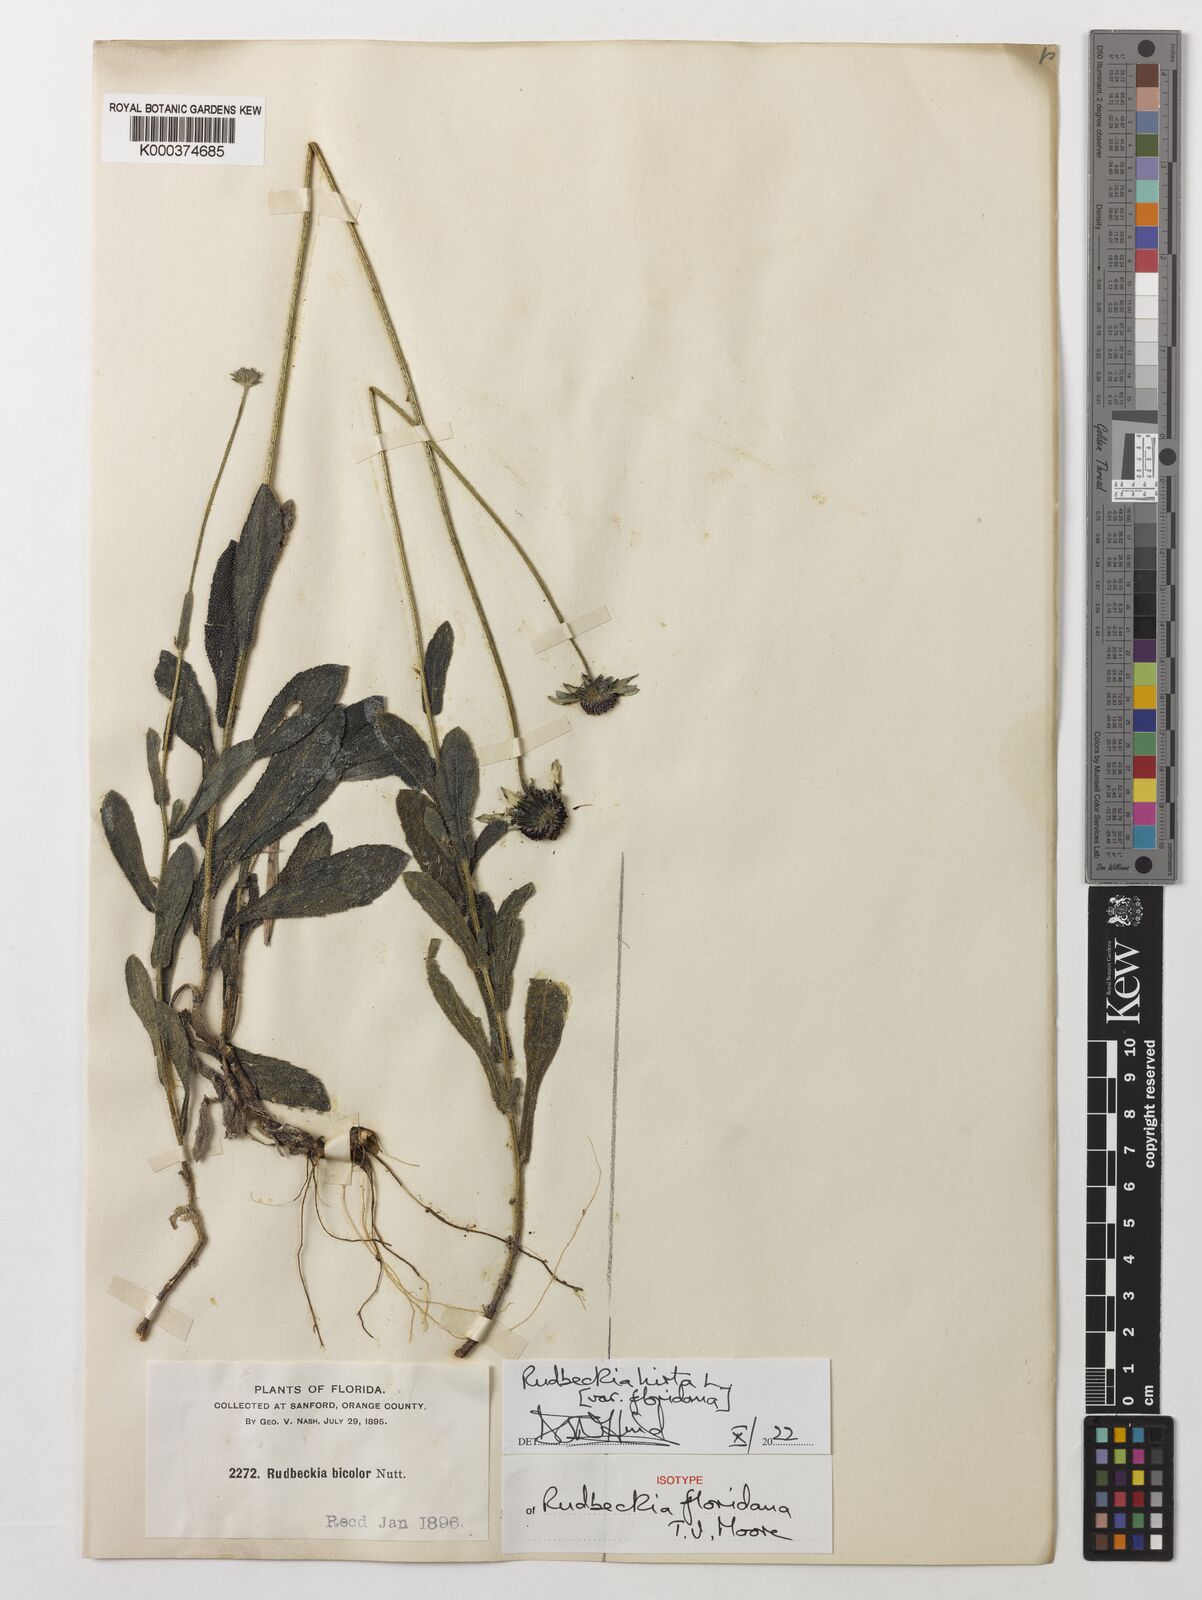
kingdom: Plantae
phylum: Tracheophyta
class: Magnoliopsida
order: Asterales
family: Asteraceae
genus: Rudbeckia
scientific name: Rudbeckia hirta
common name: Black-eyed-susan
